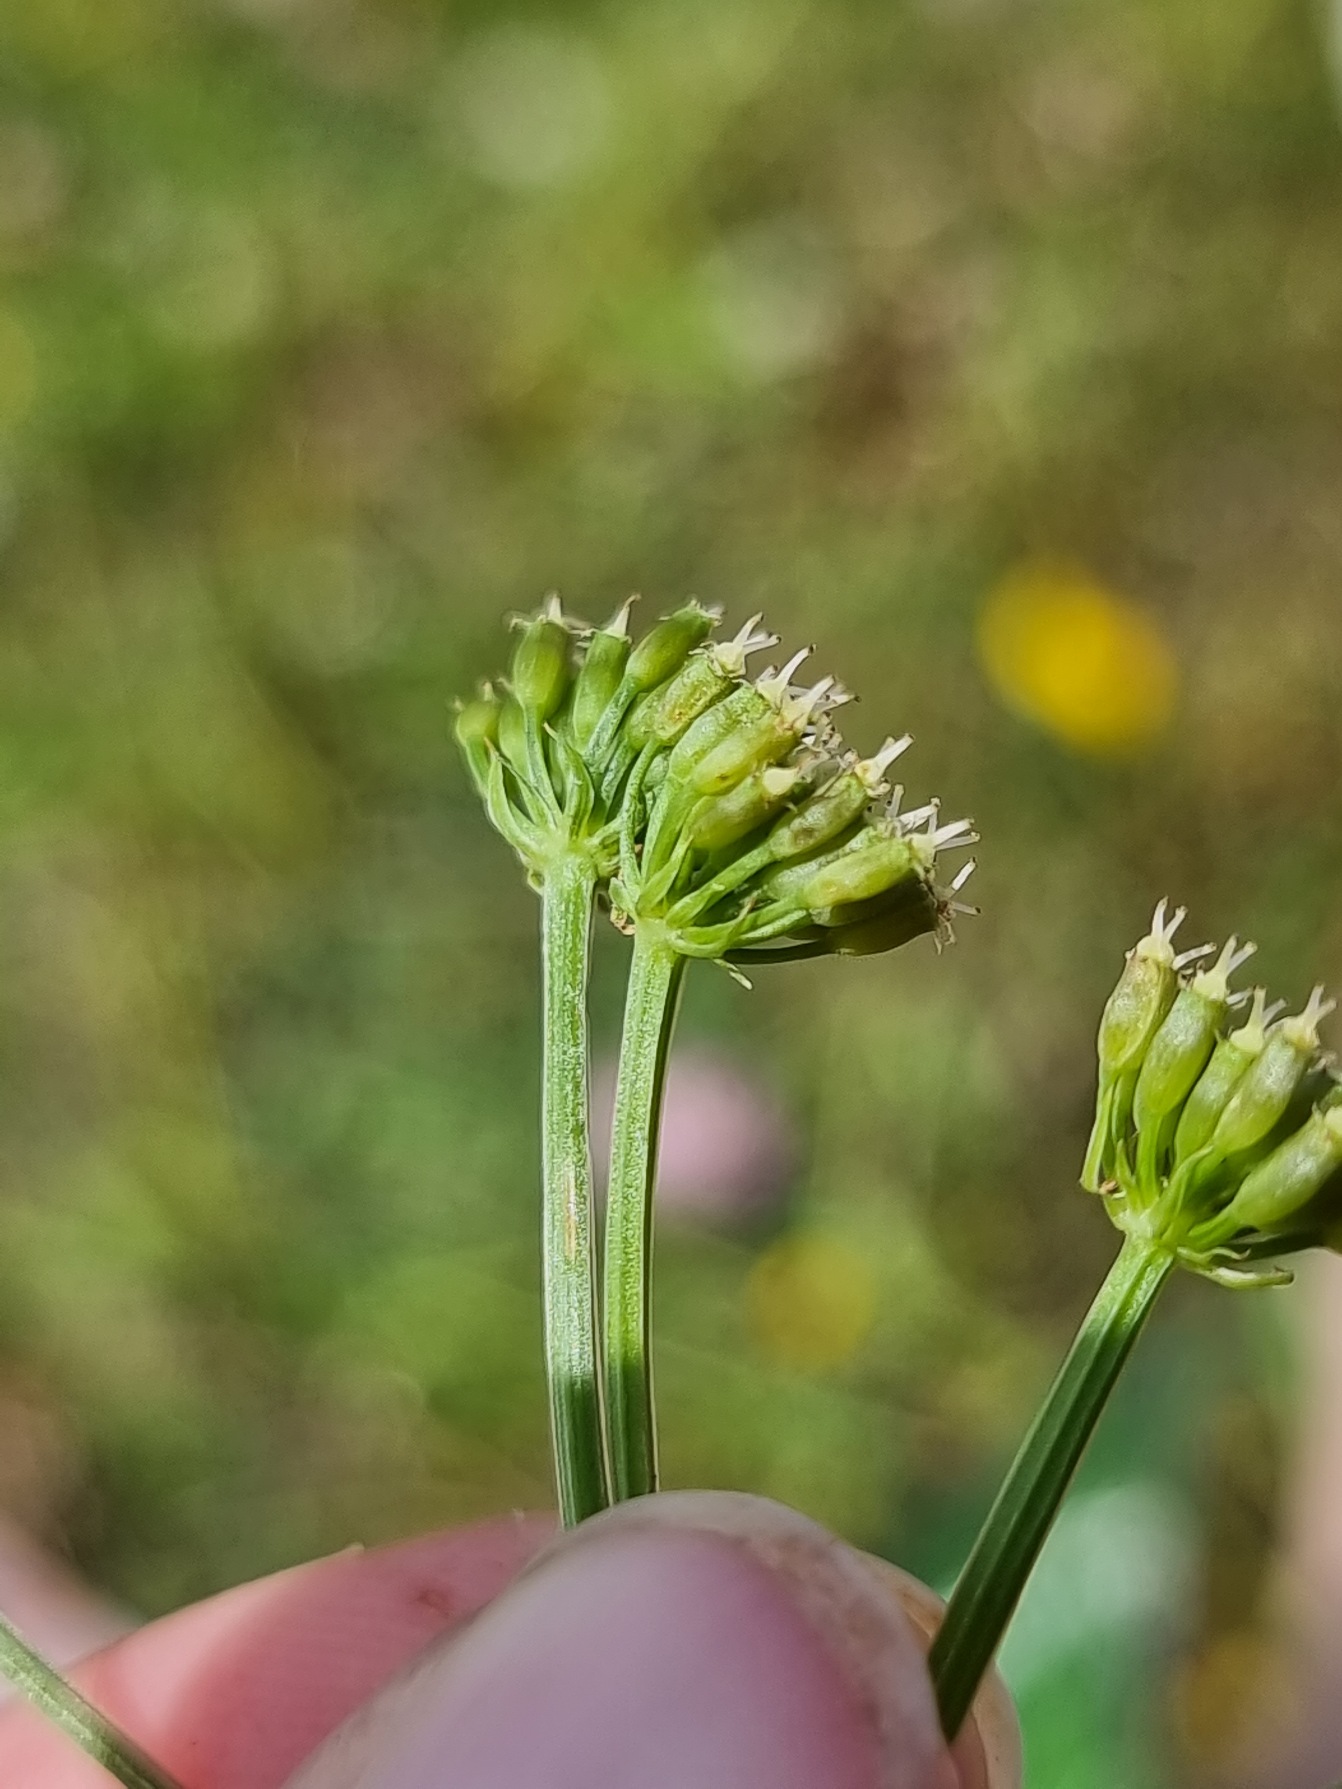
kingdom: Plantae
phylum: Tracheophyta
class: Magnoliopsida
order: Apiales
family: Apiaceae
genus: Oenanthe
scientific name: Oenanthe aquatica
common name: Billebo-klaseskærm
